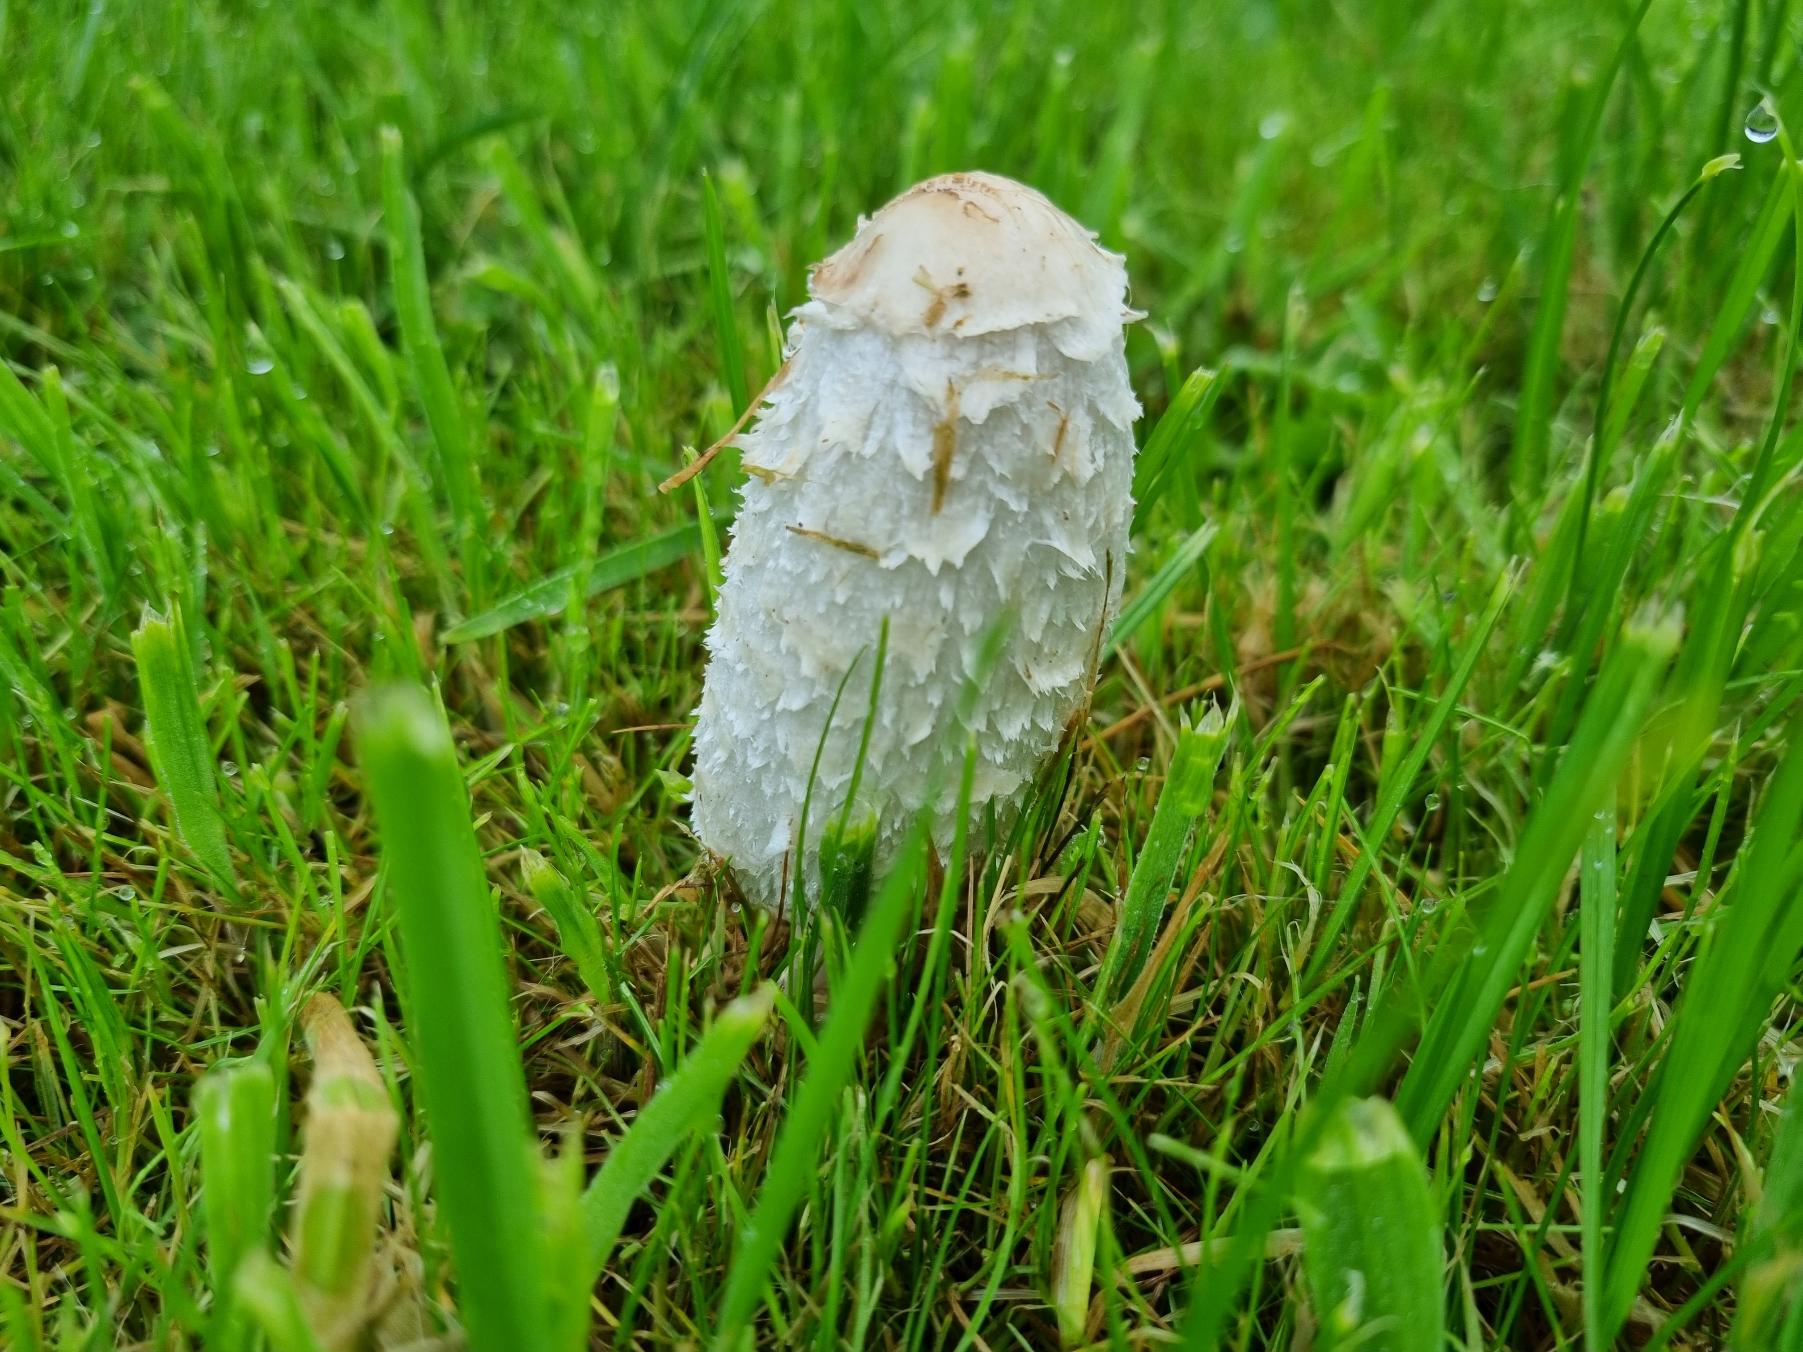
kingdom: Fungi
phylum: Basidiomycota
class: Agaricomycetes
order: Agaricales
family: Agaricaceae
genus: Coprinus
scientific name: Coprinus comatus
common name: Stor parykhat
